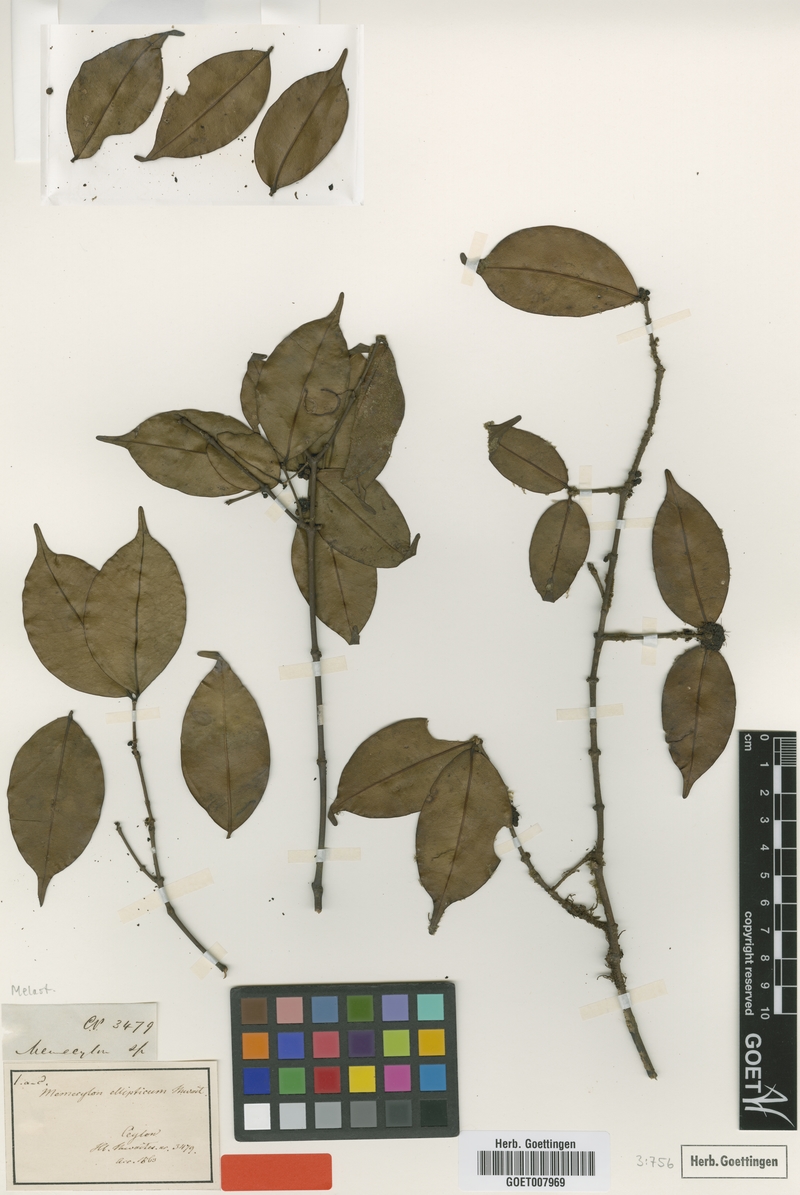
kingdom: Plantae
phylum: Tracheophyta
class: Magnoliopsida
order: Myrtales
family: Melastomataceae
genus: Memecylon
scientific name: Memecylon ellipticum
